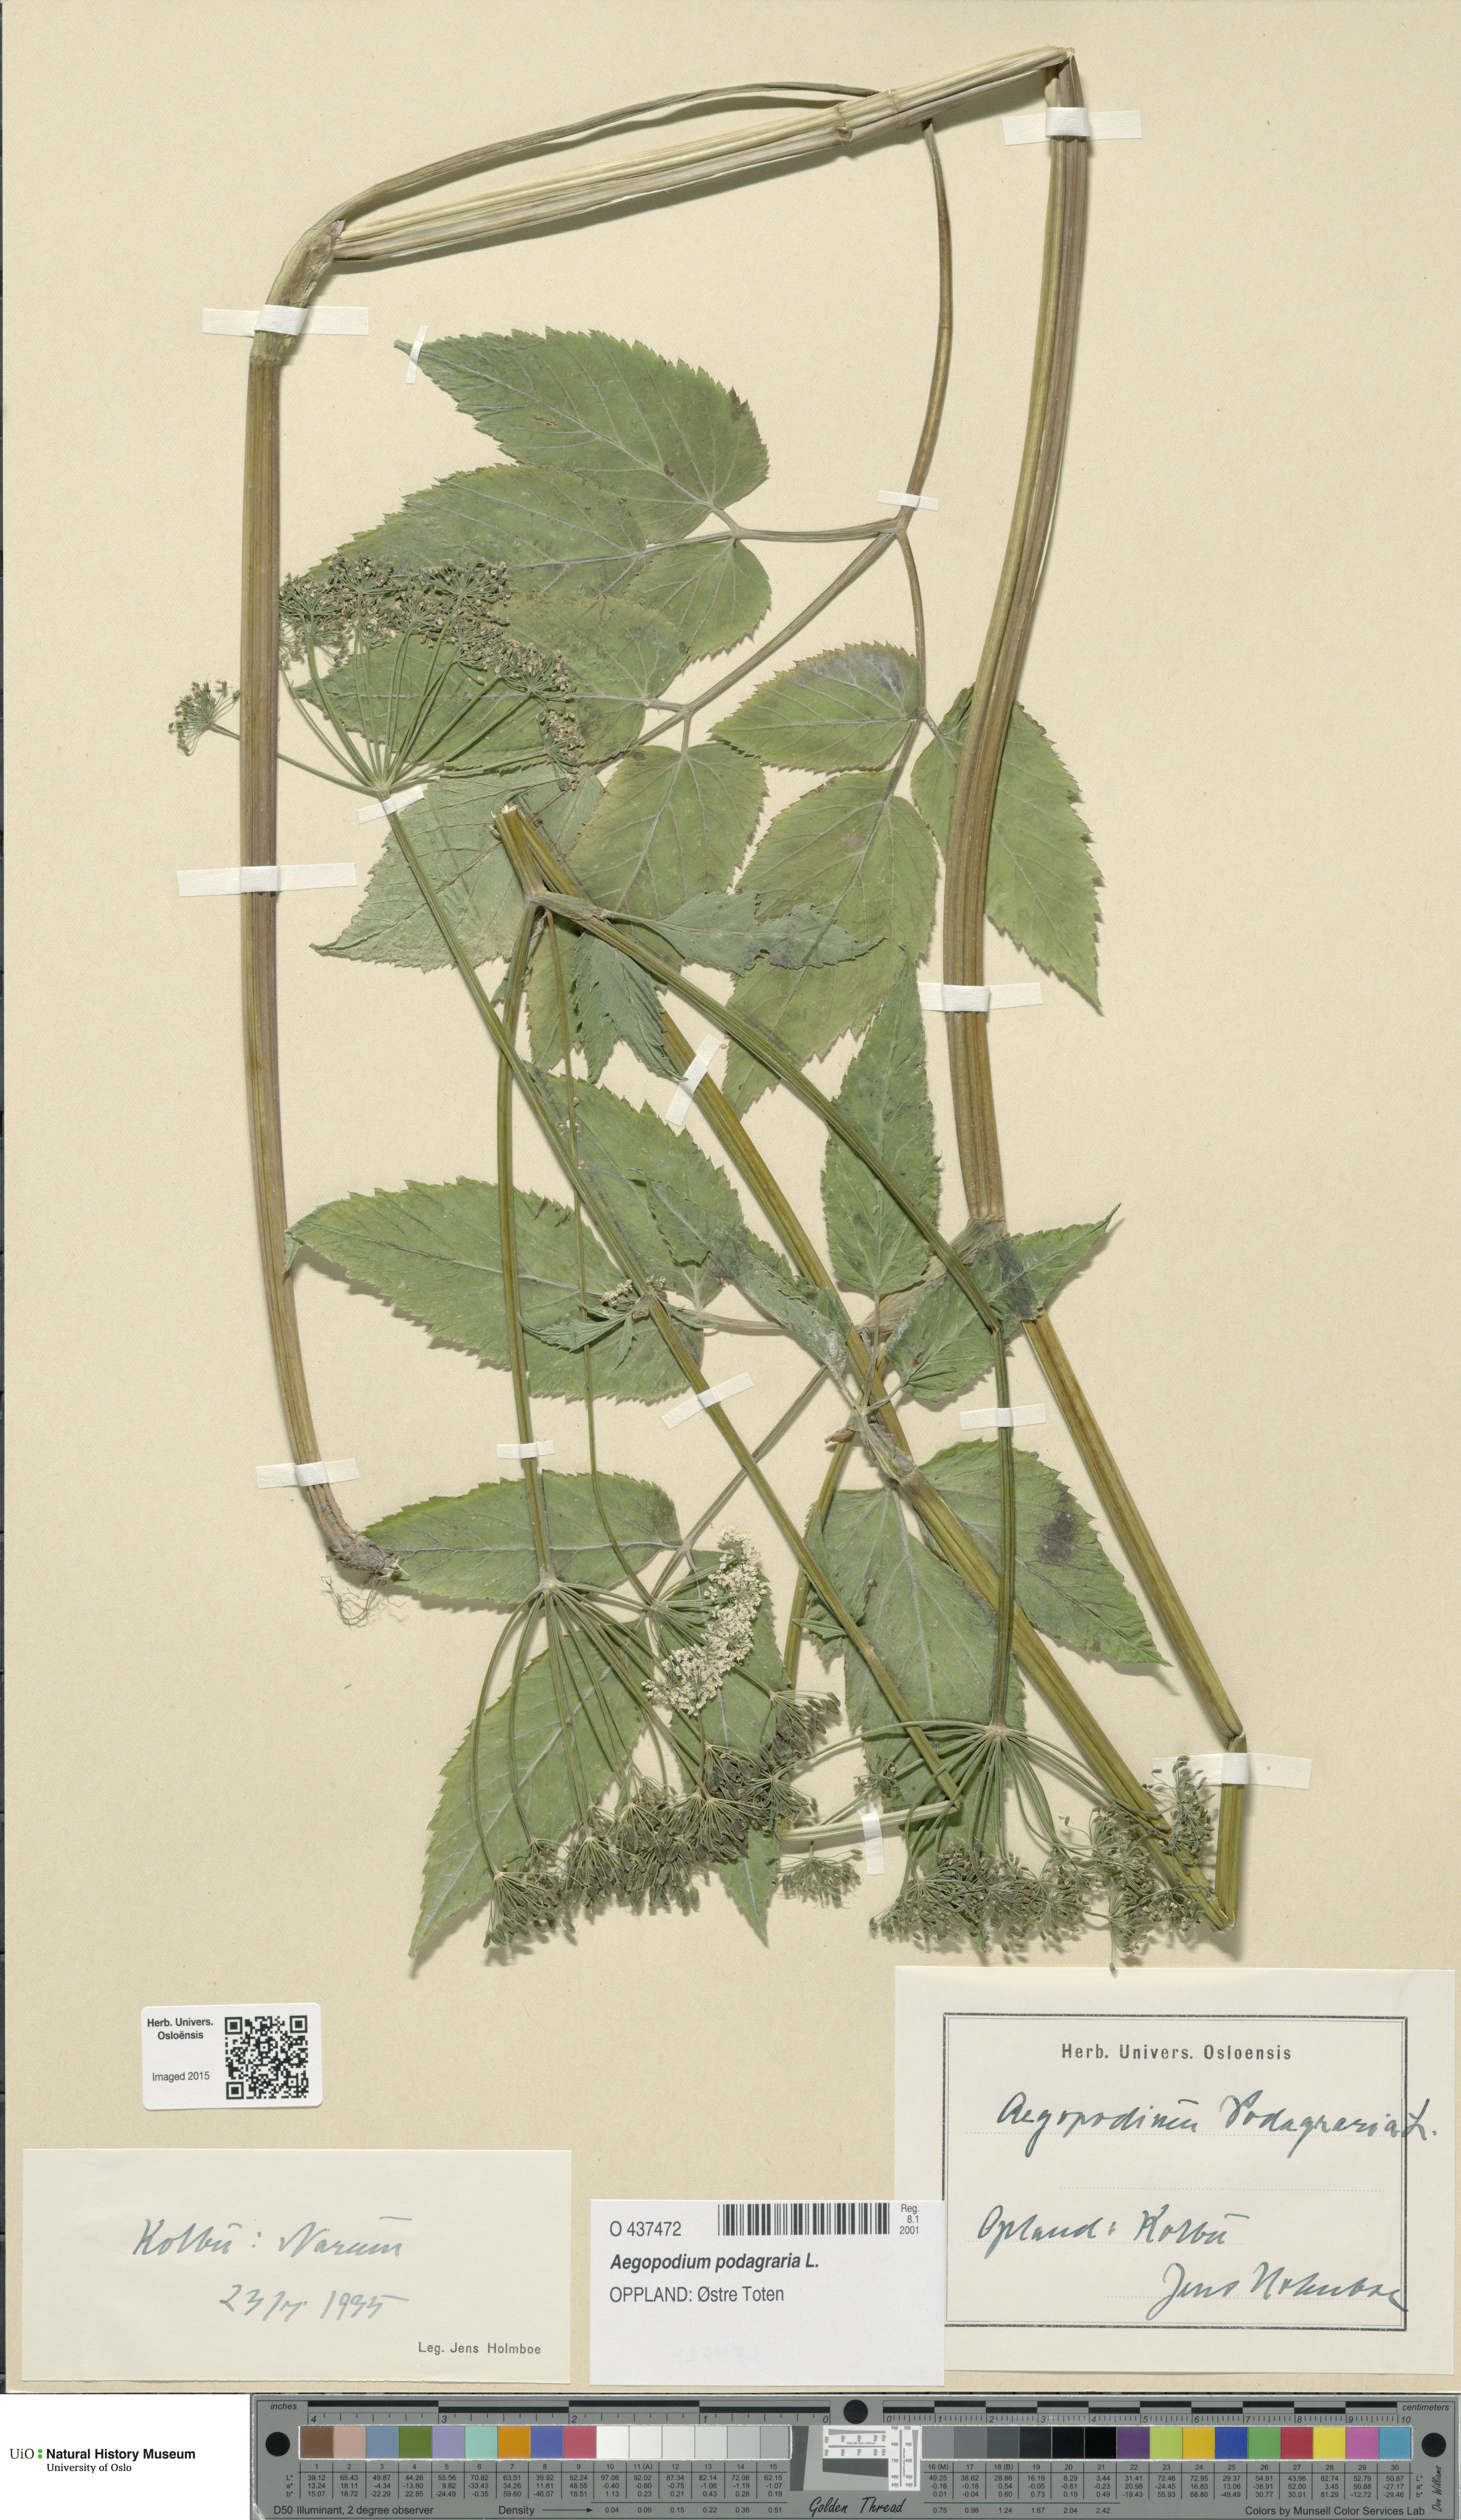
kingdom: Plantae
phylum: Tracheophyta
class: Magnoliopsida
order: Apiales
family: Apiaceae
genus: Aegopodium
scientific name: Aegopodium podagraria
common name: Ground-elder
